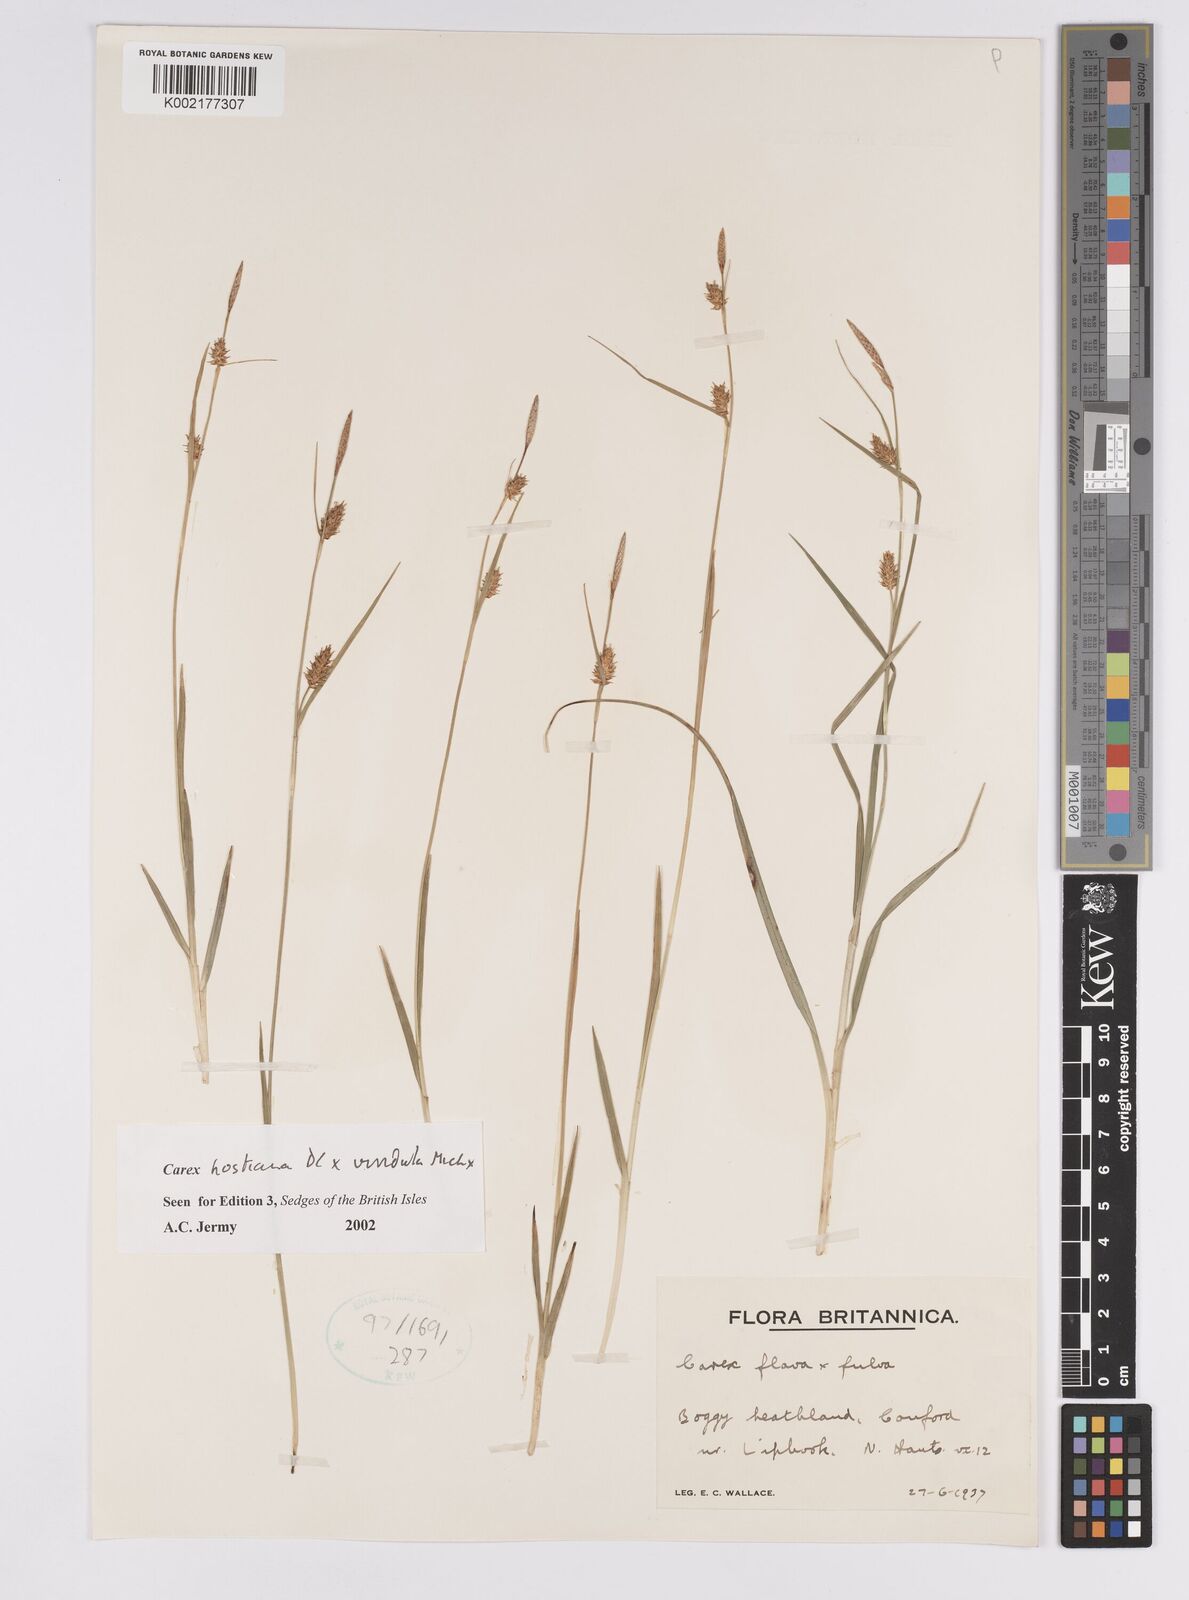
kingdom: Plantae
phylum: Tracheophyta
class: Liliopsida
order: Poales
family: Cyperaceae
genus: Carex
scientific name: Carex hostiana
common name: Tawny sedge
